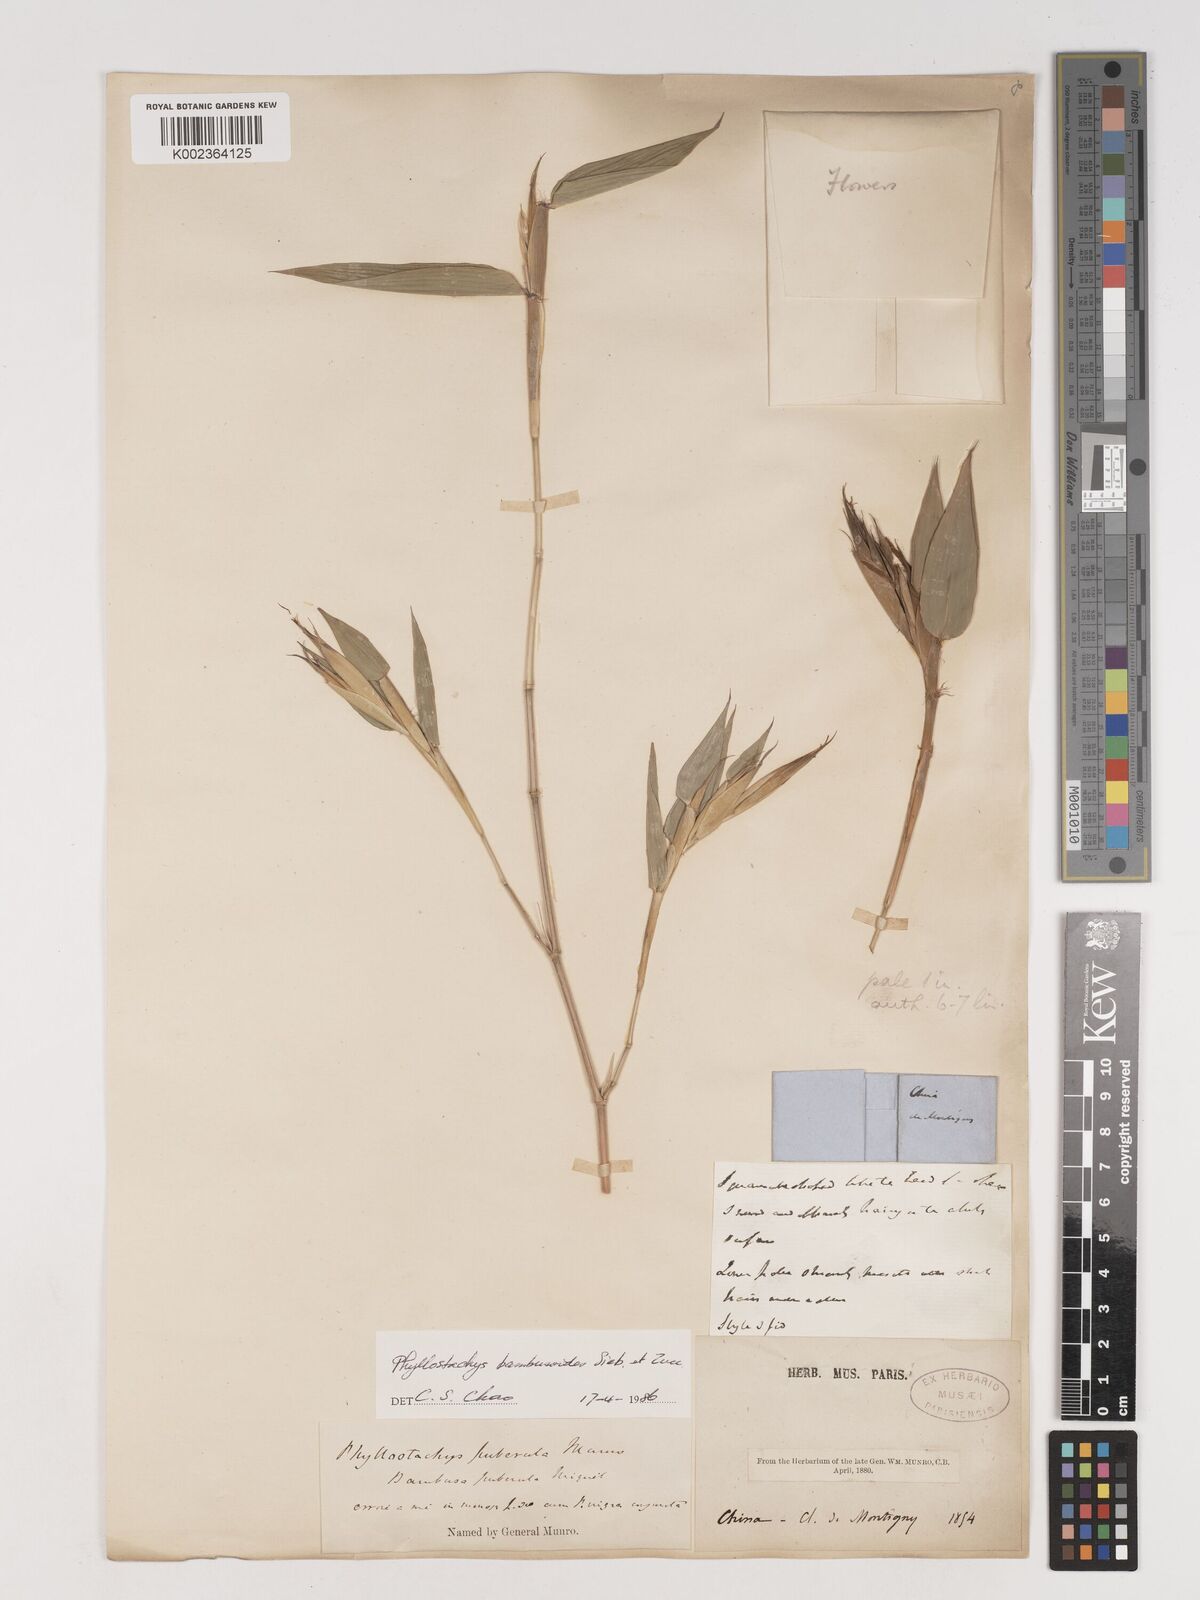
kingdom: Plantae
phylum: Tracheophyta
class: Liliopsida
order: Poales
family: Poaceae
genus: Phyllostachys
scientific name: Phyllostachys reticulata
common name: Bamboo
